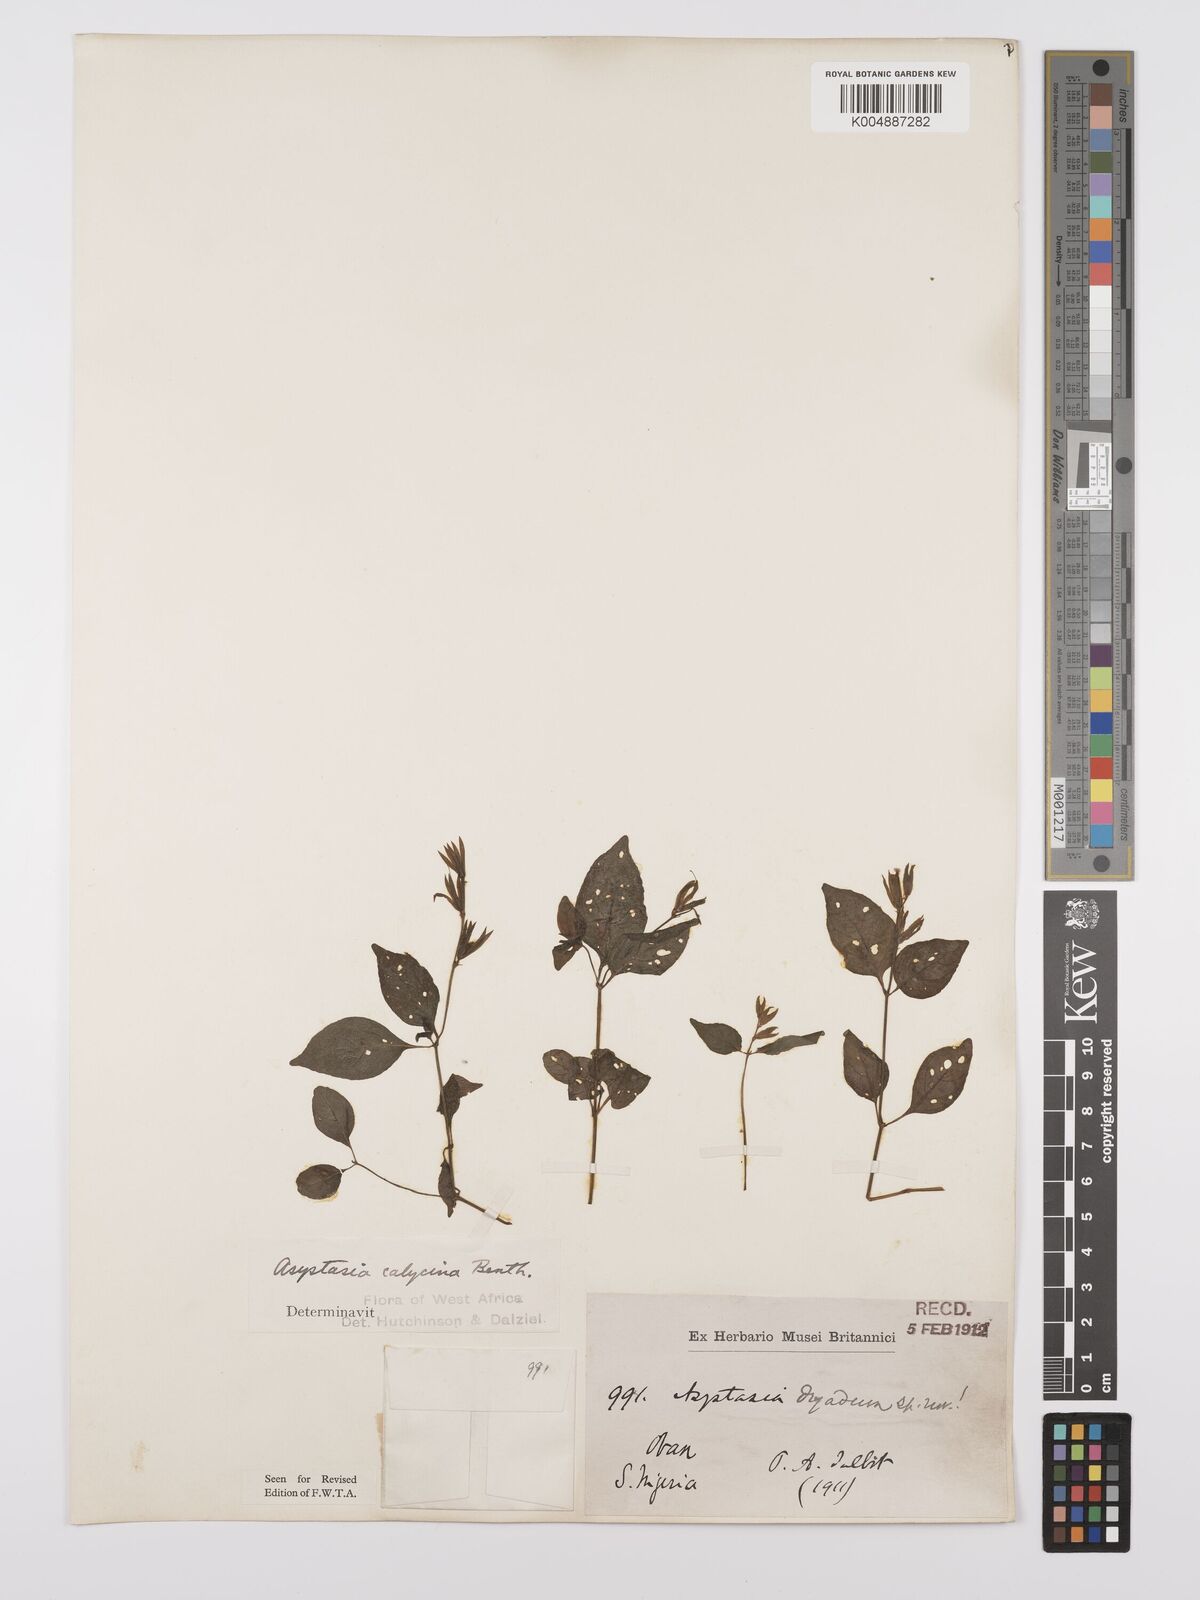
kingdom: Plantae
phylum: Tracheophyta
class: Magnoliopsida
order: Lamiales
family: Acanthaceae
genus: Asystasia
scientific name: Asystasia buettneri
